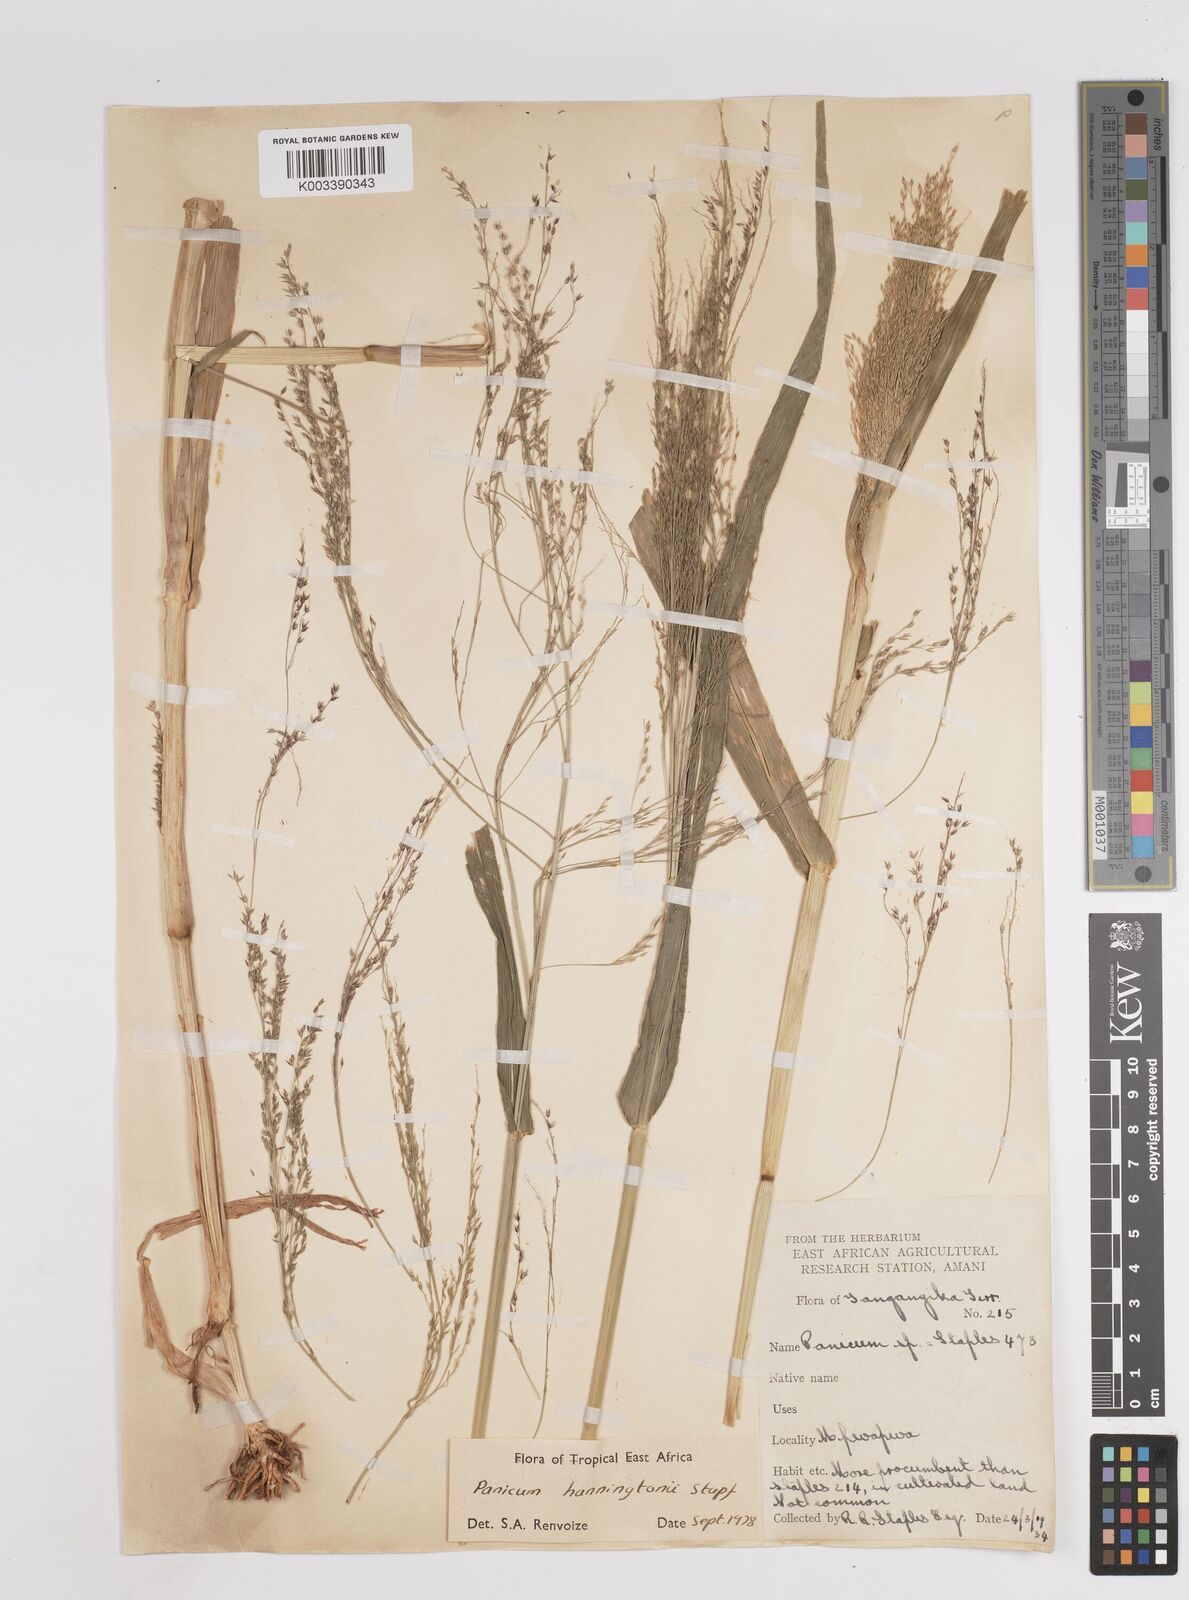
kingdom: Plantae
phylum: Tracheophyta
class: Liliopsida
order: Poales
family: Poaceae
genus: Panicum
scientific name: Panicum hanningtonii
